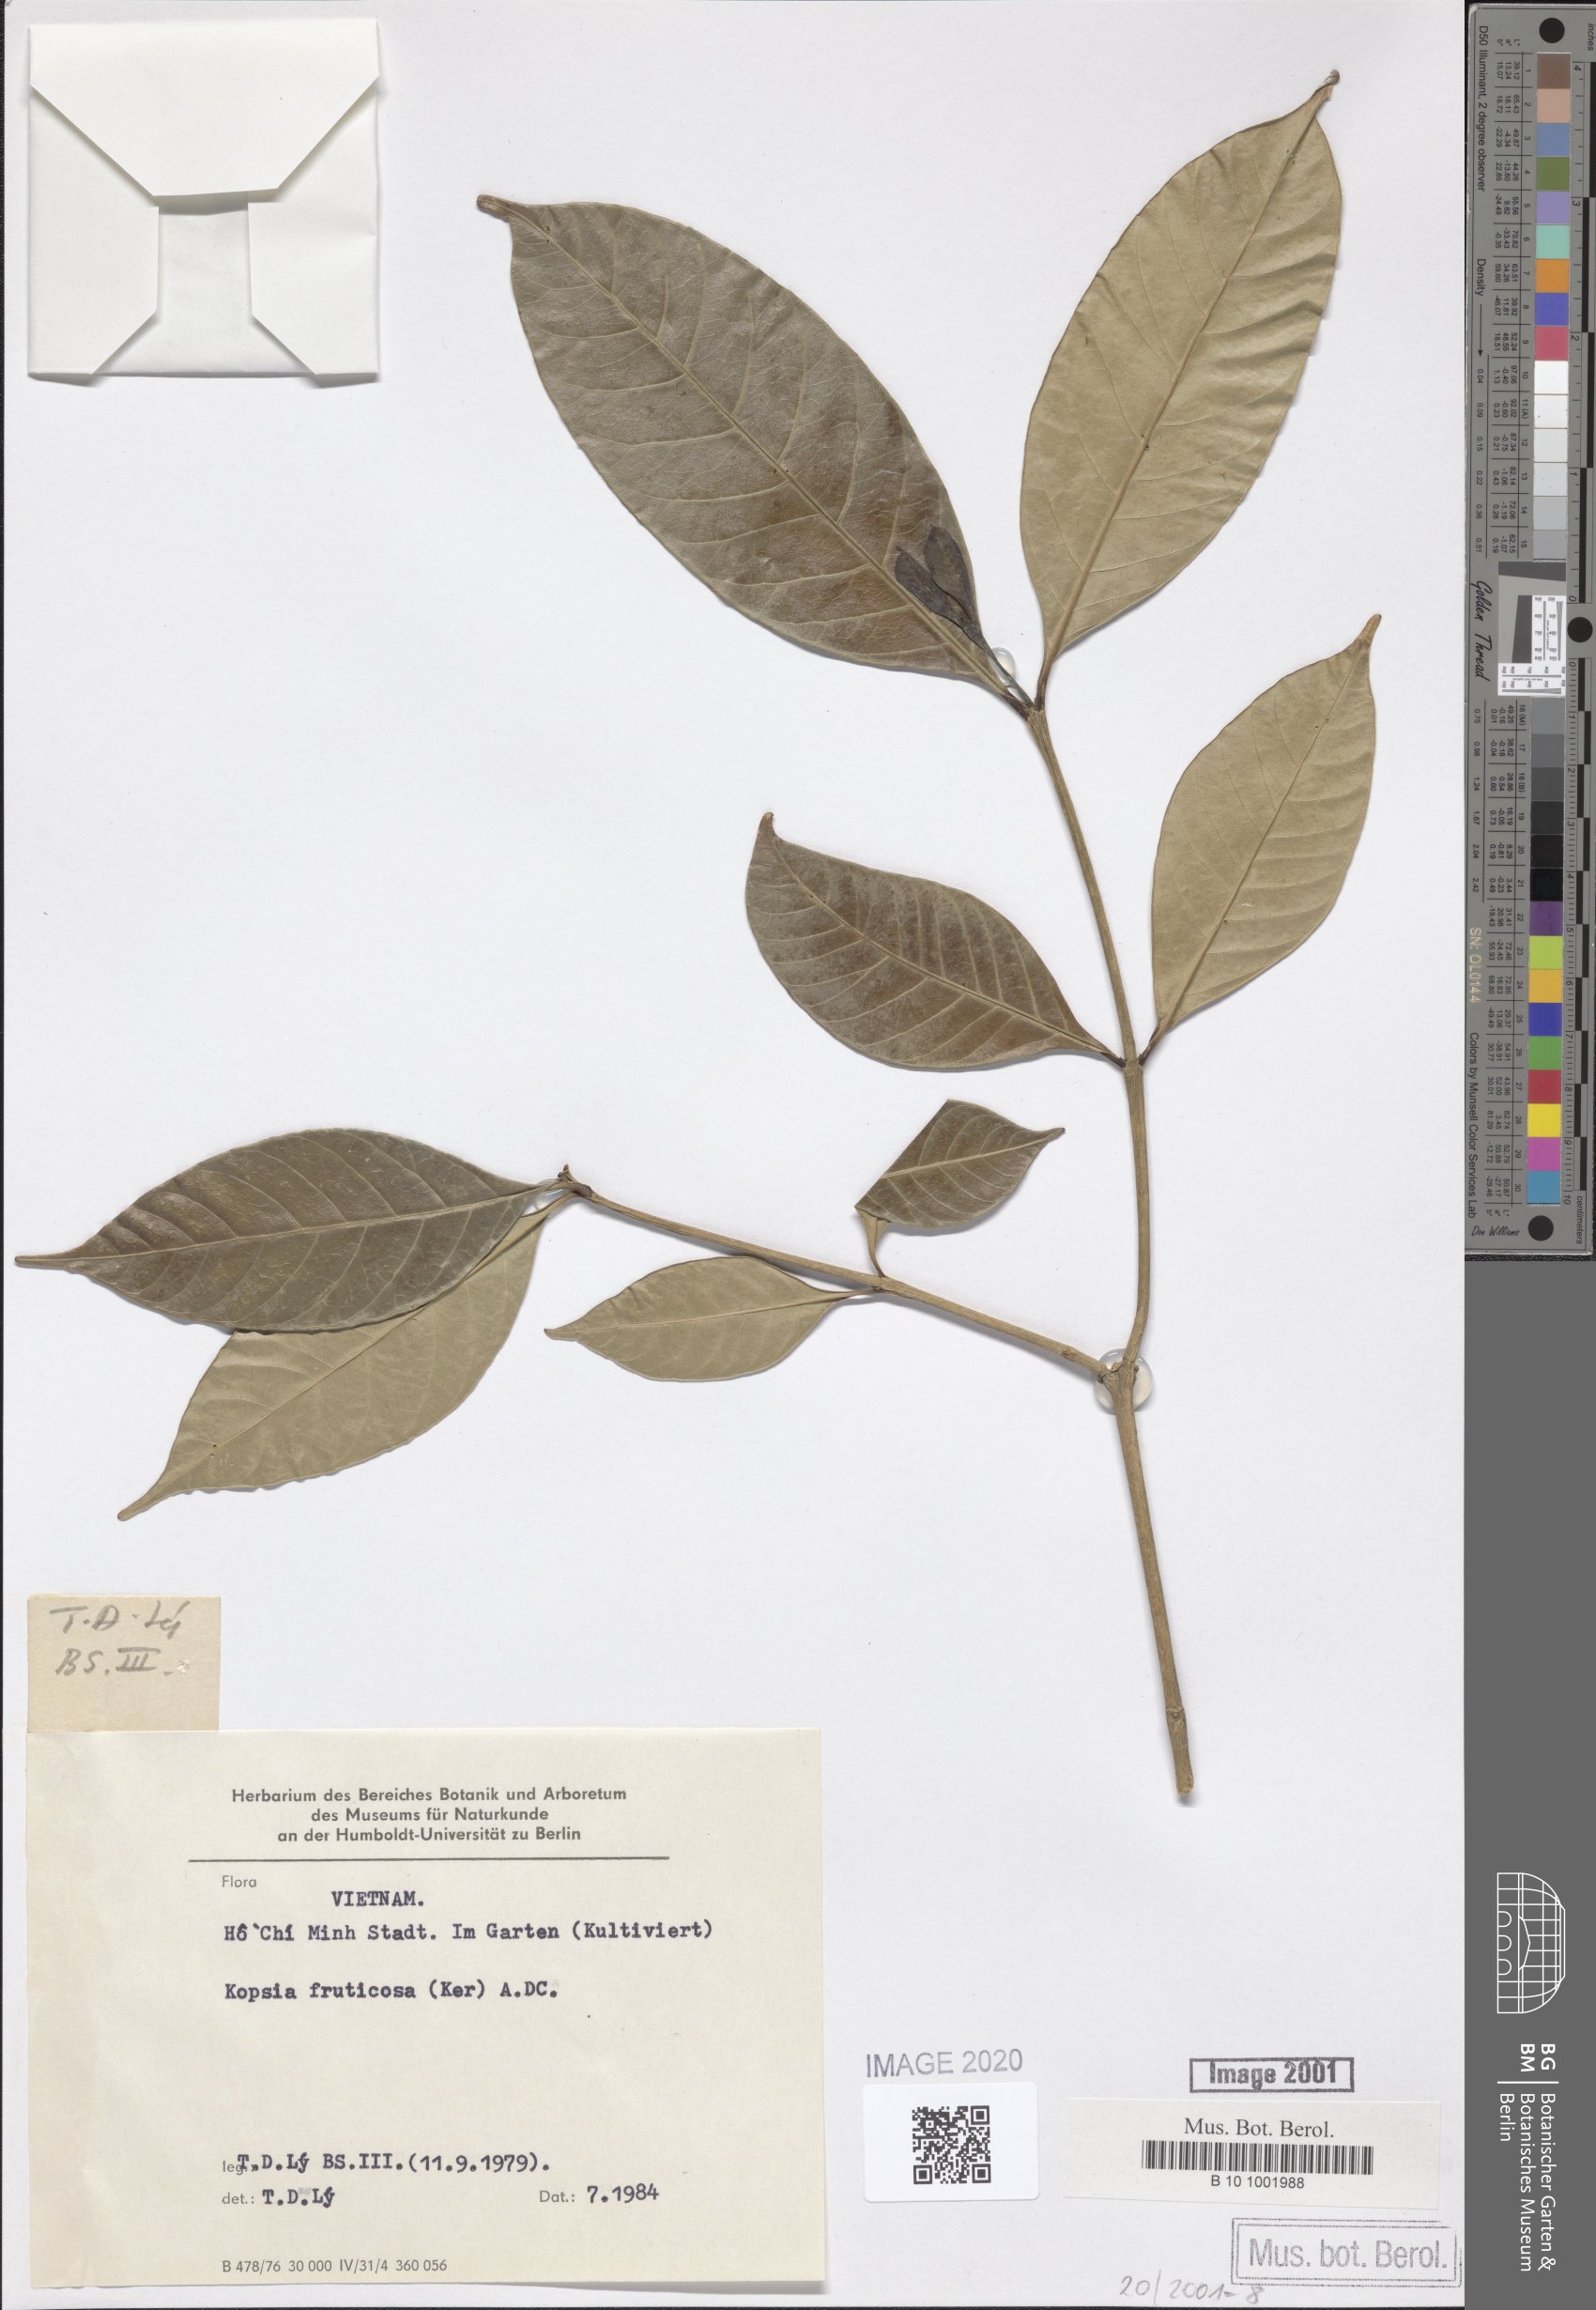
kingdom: Plantae
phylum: Tracheophyta
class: Magnoliopsida
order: Gentianales
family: Apocynaceae
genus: Kopsia
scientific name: Kopsia fruticosa
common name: Shrub-vinca
